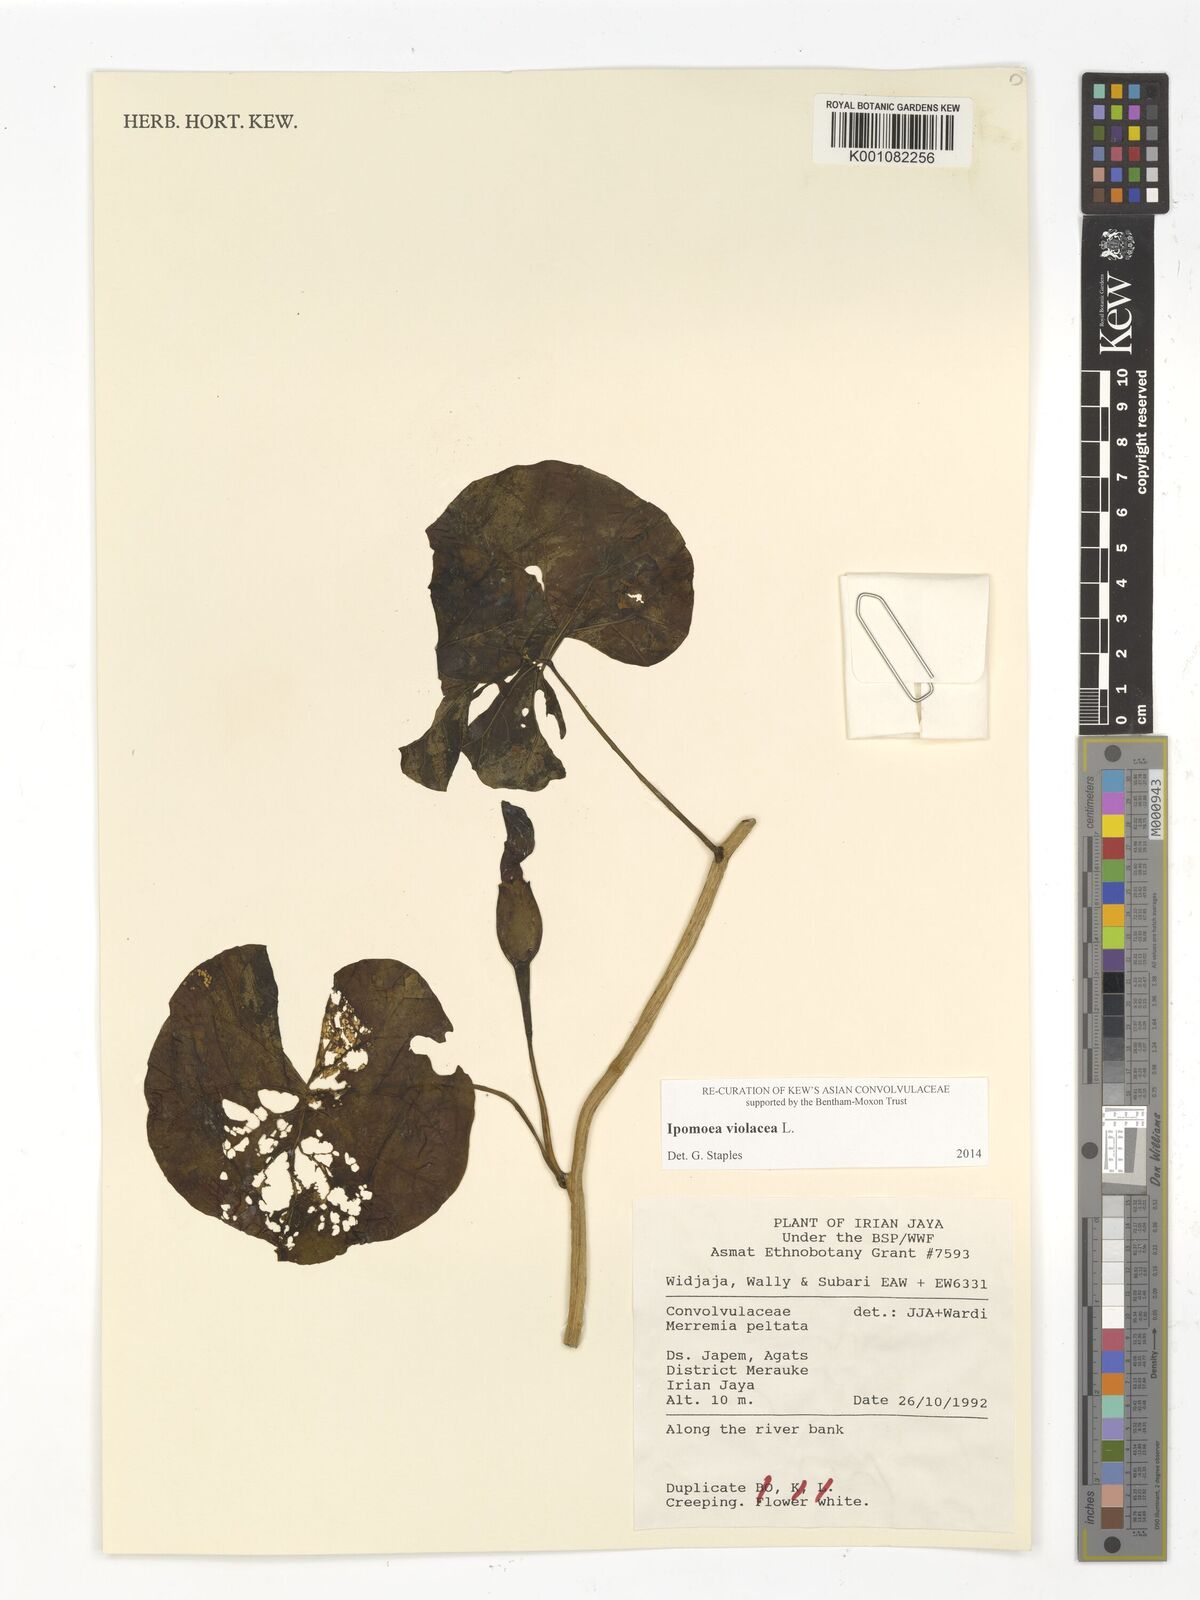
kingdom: Plantae
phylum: Tracheophyta
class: Magnoliopsida
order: Solanales
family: Convolvulaceae
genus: Ipomoea
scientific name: Ipomoea violacea
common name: Beach moonflower
